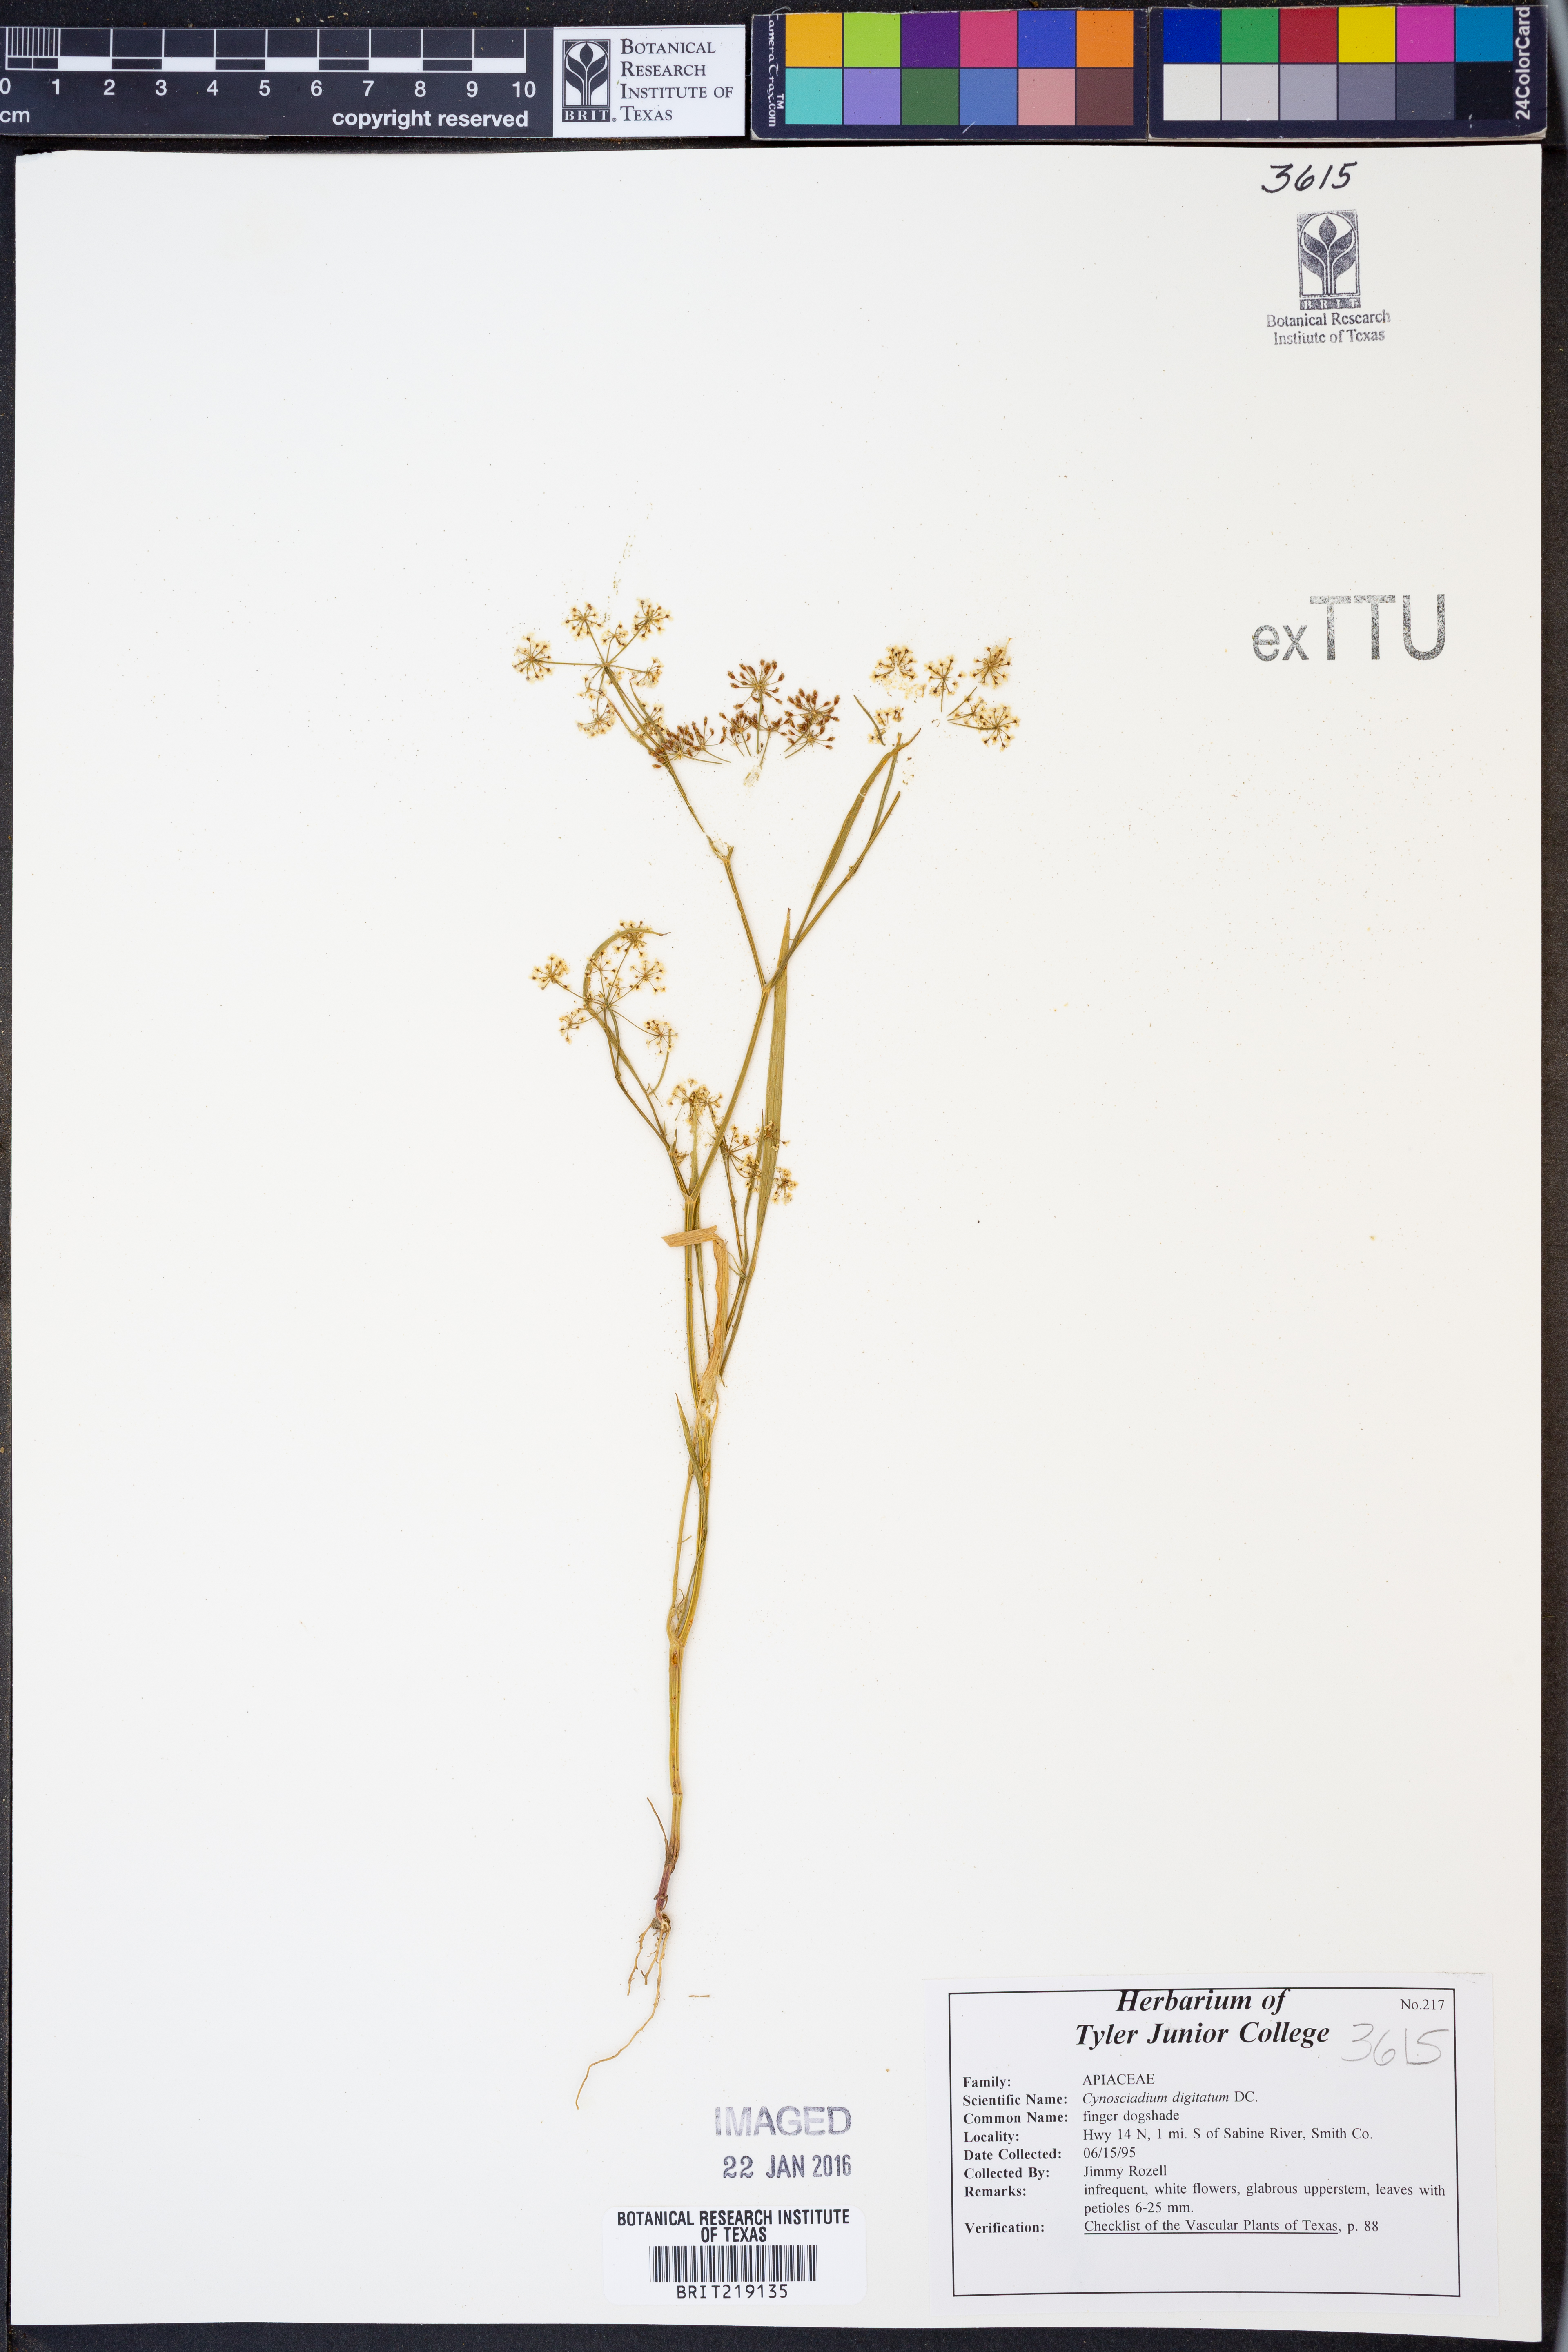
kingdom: Plantae
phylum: Tracheophyta
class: Magnoliopsida
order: Apiales
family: Apiaceae
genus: Cynosciadium
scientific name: Cynosciadium digitatum
